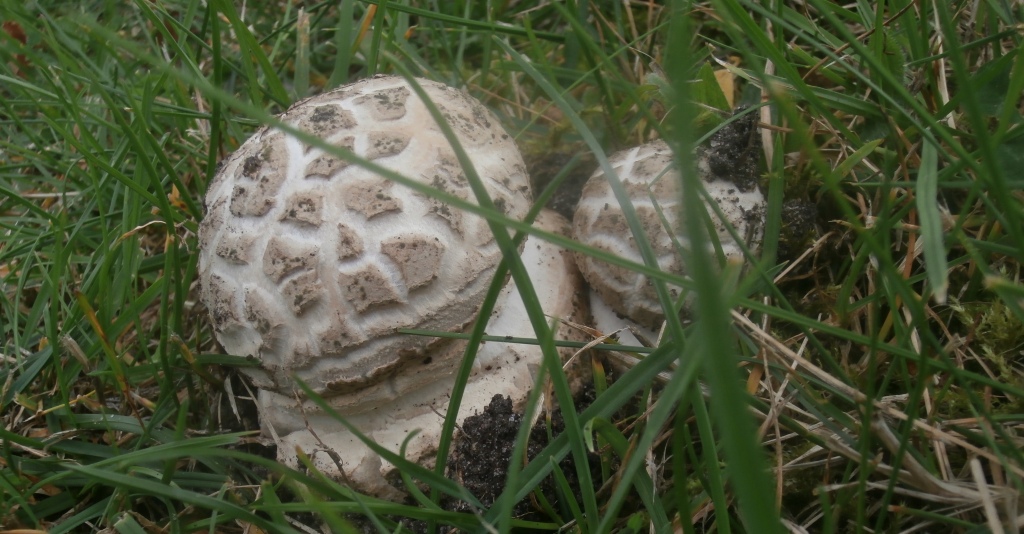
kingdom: Fungi
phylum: Basidiomycota
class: Agaricomycetes
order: Agaricales
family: Amanitaceae
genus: Amanita
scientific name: Amanita
